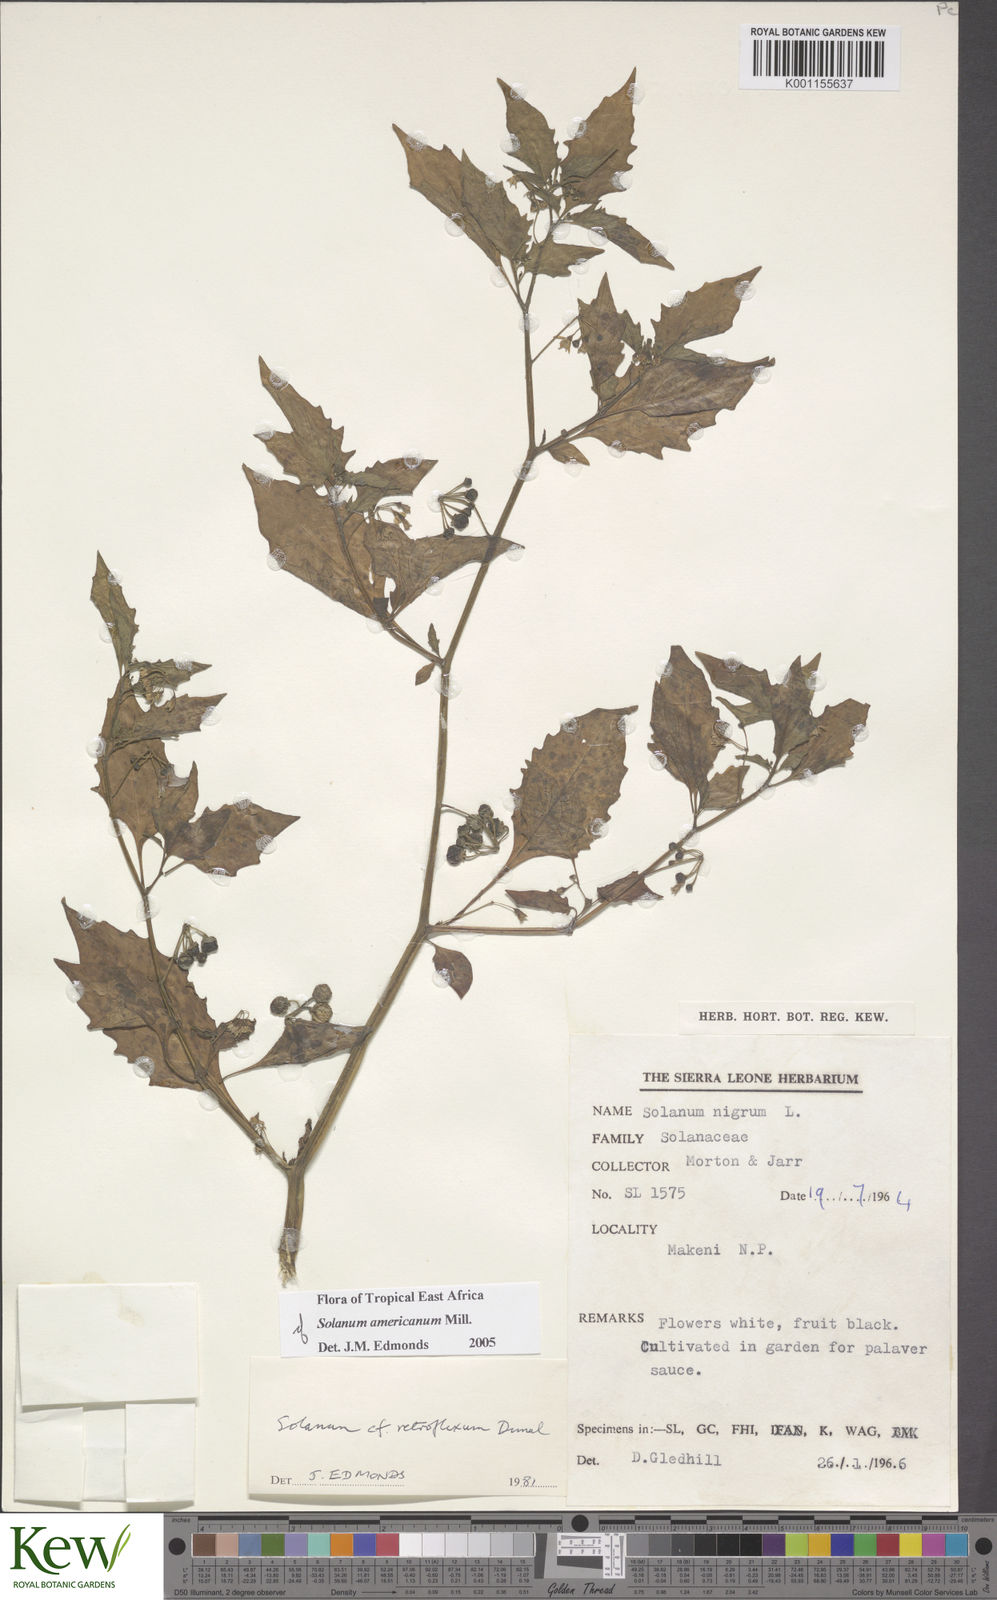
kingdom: Plantae
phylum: Tracheophyta
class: Magnoliopsida
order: Solanales
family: Solanaceae
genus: Solanum
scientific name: Solanum tarderemotum
